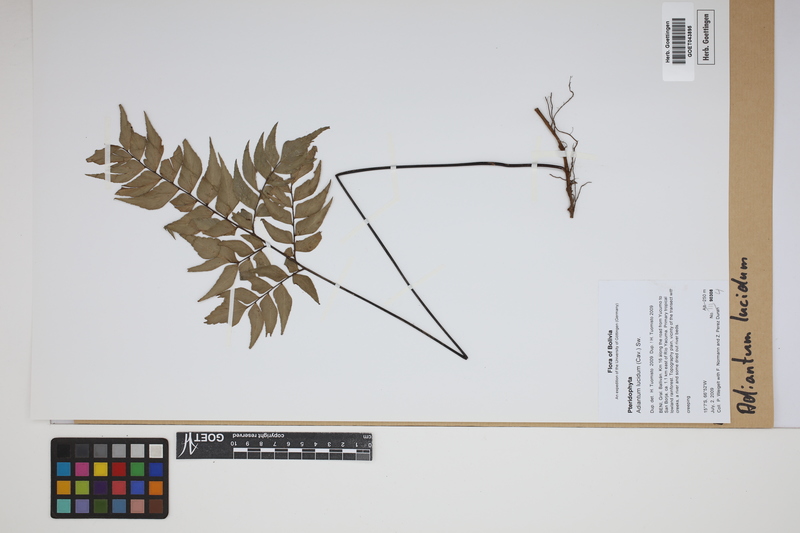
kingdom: Plantae
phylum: Tracheophyta
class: Polypodiopsida
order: Polypodiales
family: Pteridaceae
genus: Adiantum
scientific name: Adiantum lucidum
